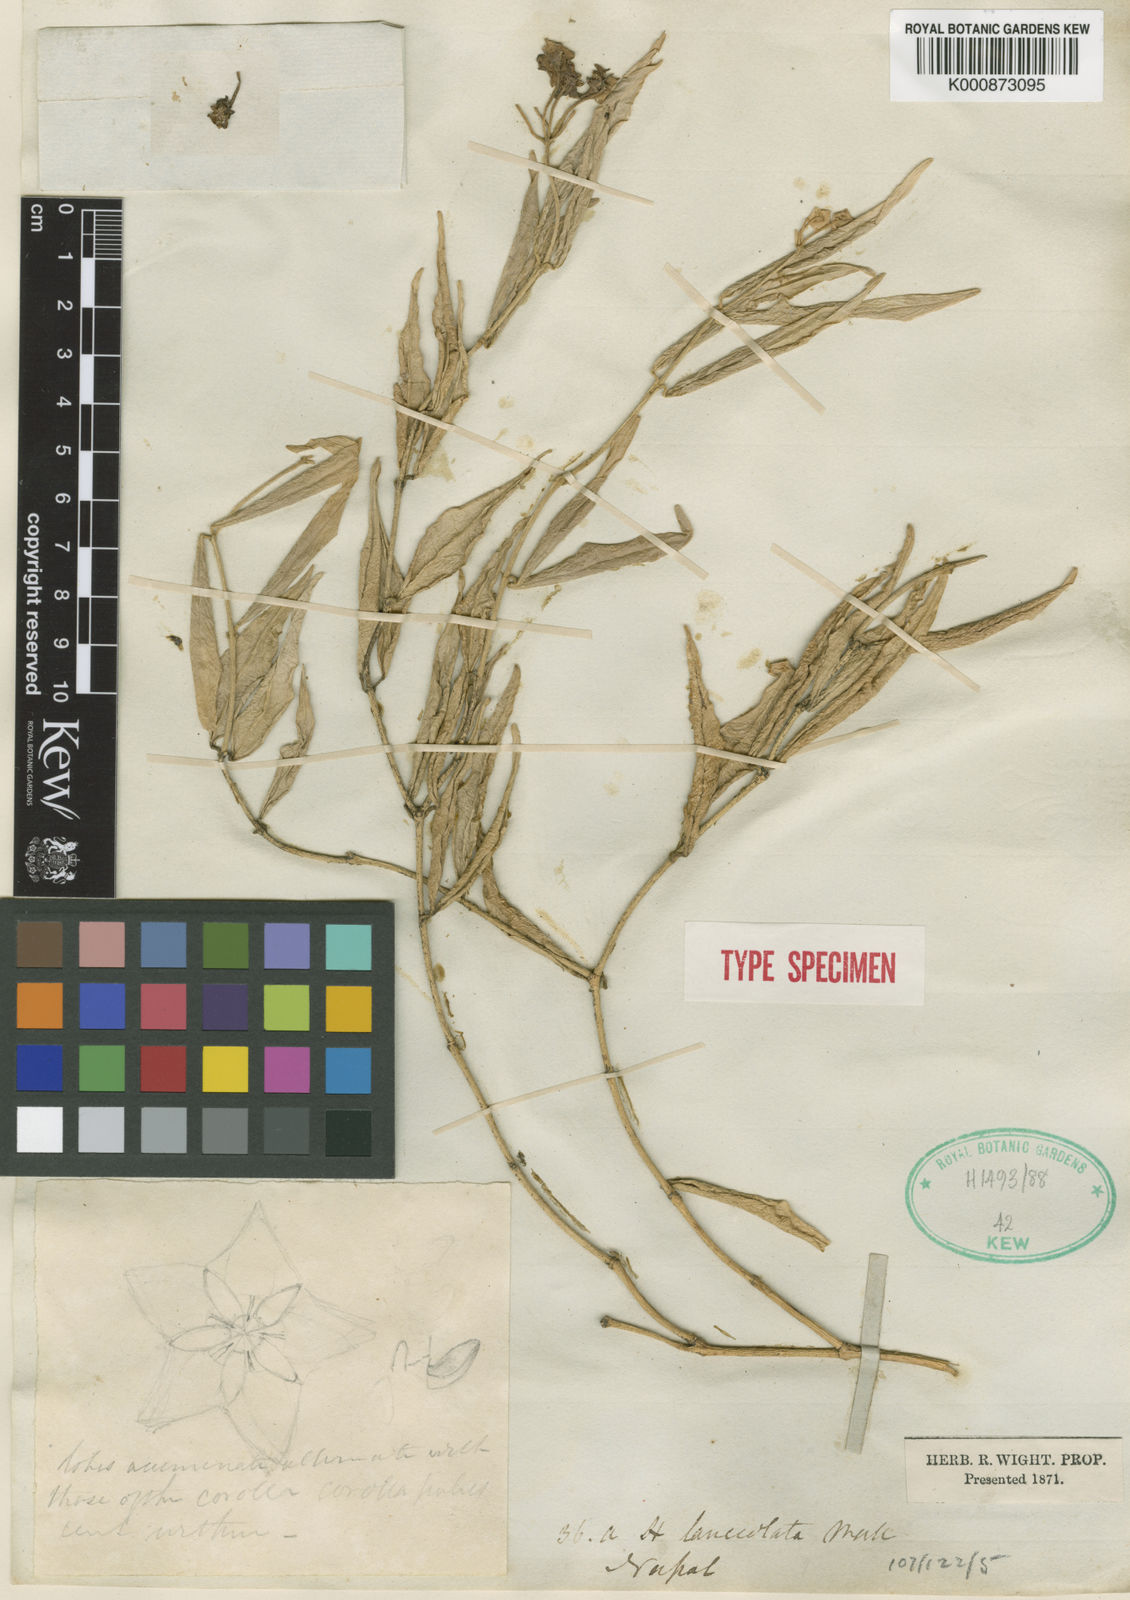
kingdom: Plantae
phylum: Tracheophyta
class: Magnoliopsida
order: Gentianales
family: Apocynaceae
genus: Hoya
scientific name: Hoya lanceolata
